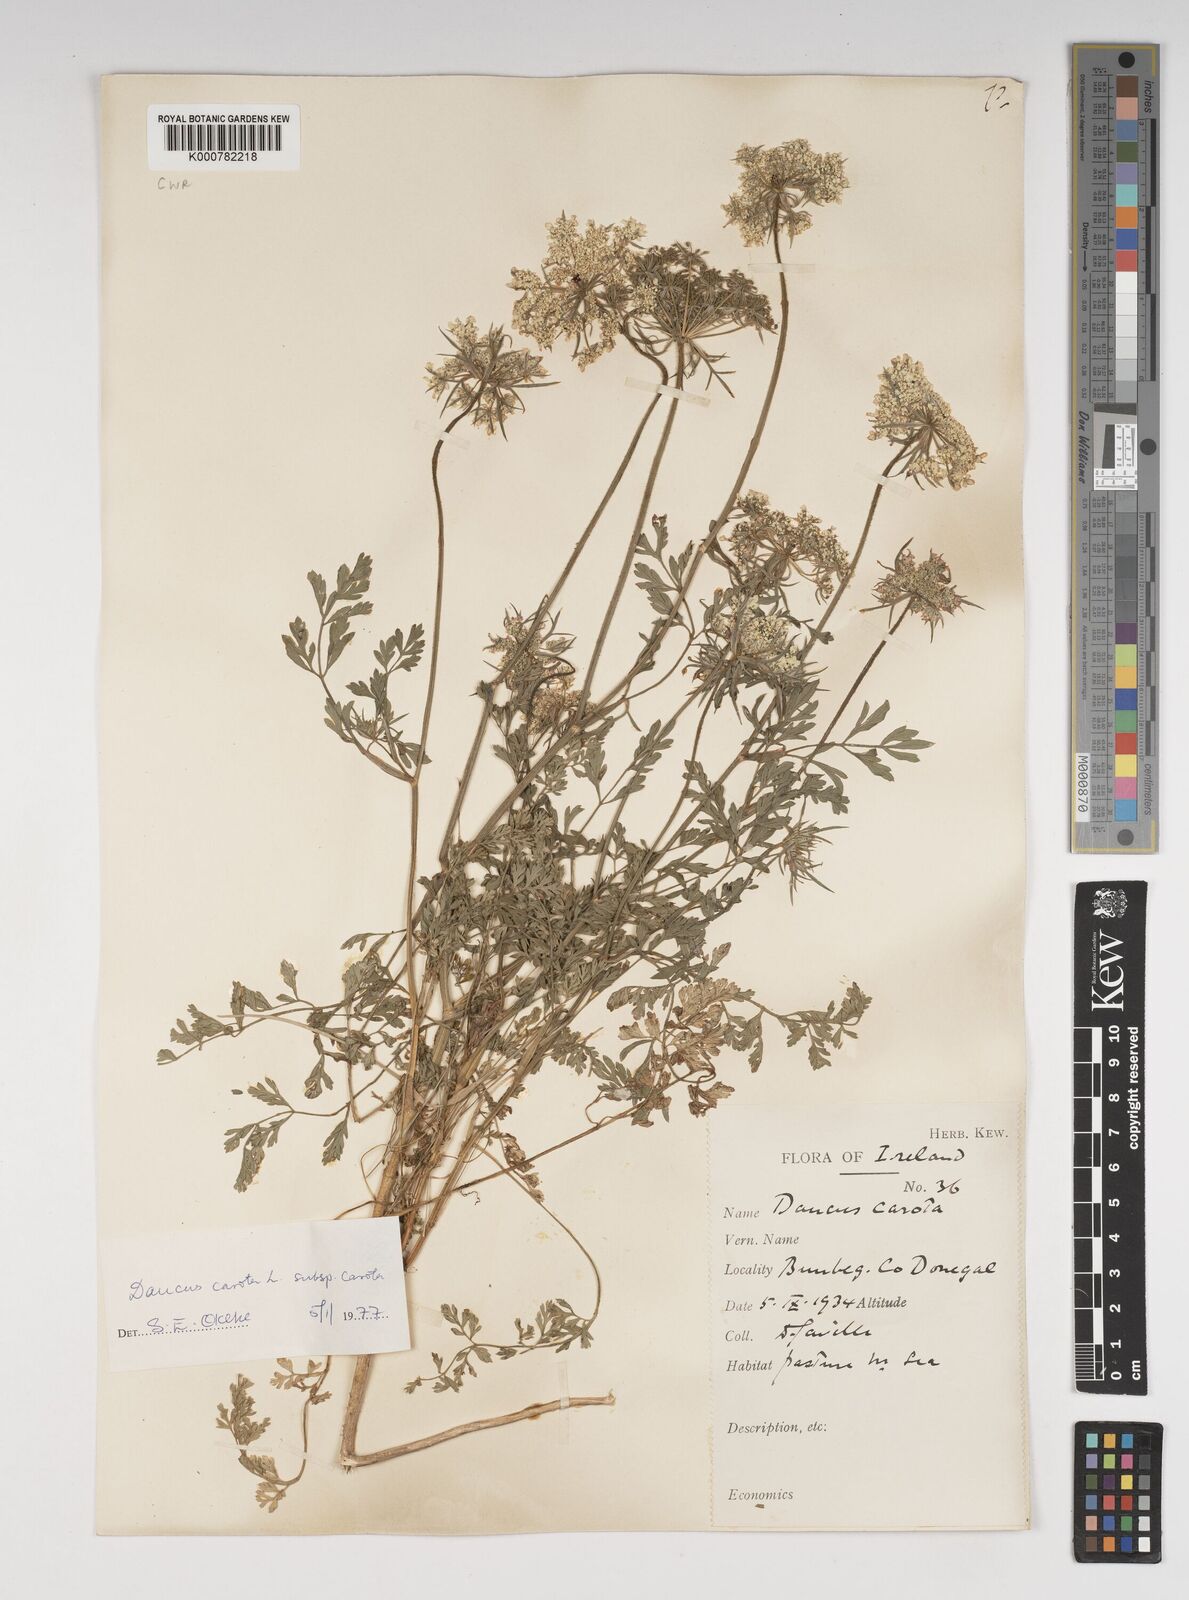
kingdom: Plantae
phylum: Tracheophyta
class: Magnoliopsida
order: Apiales
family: Apiaceae
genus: Daucus
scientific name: Daucus carota
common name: Wild carrot
